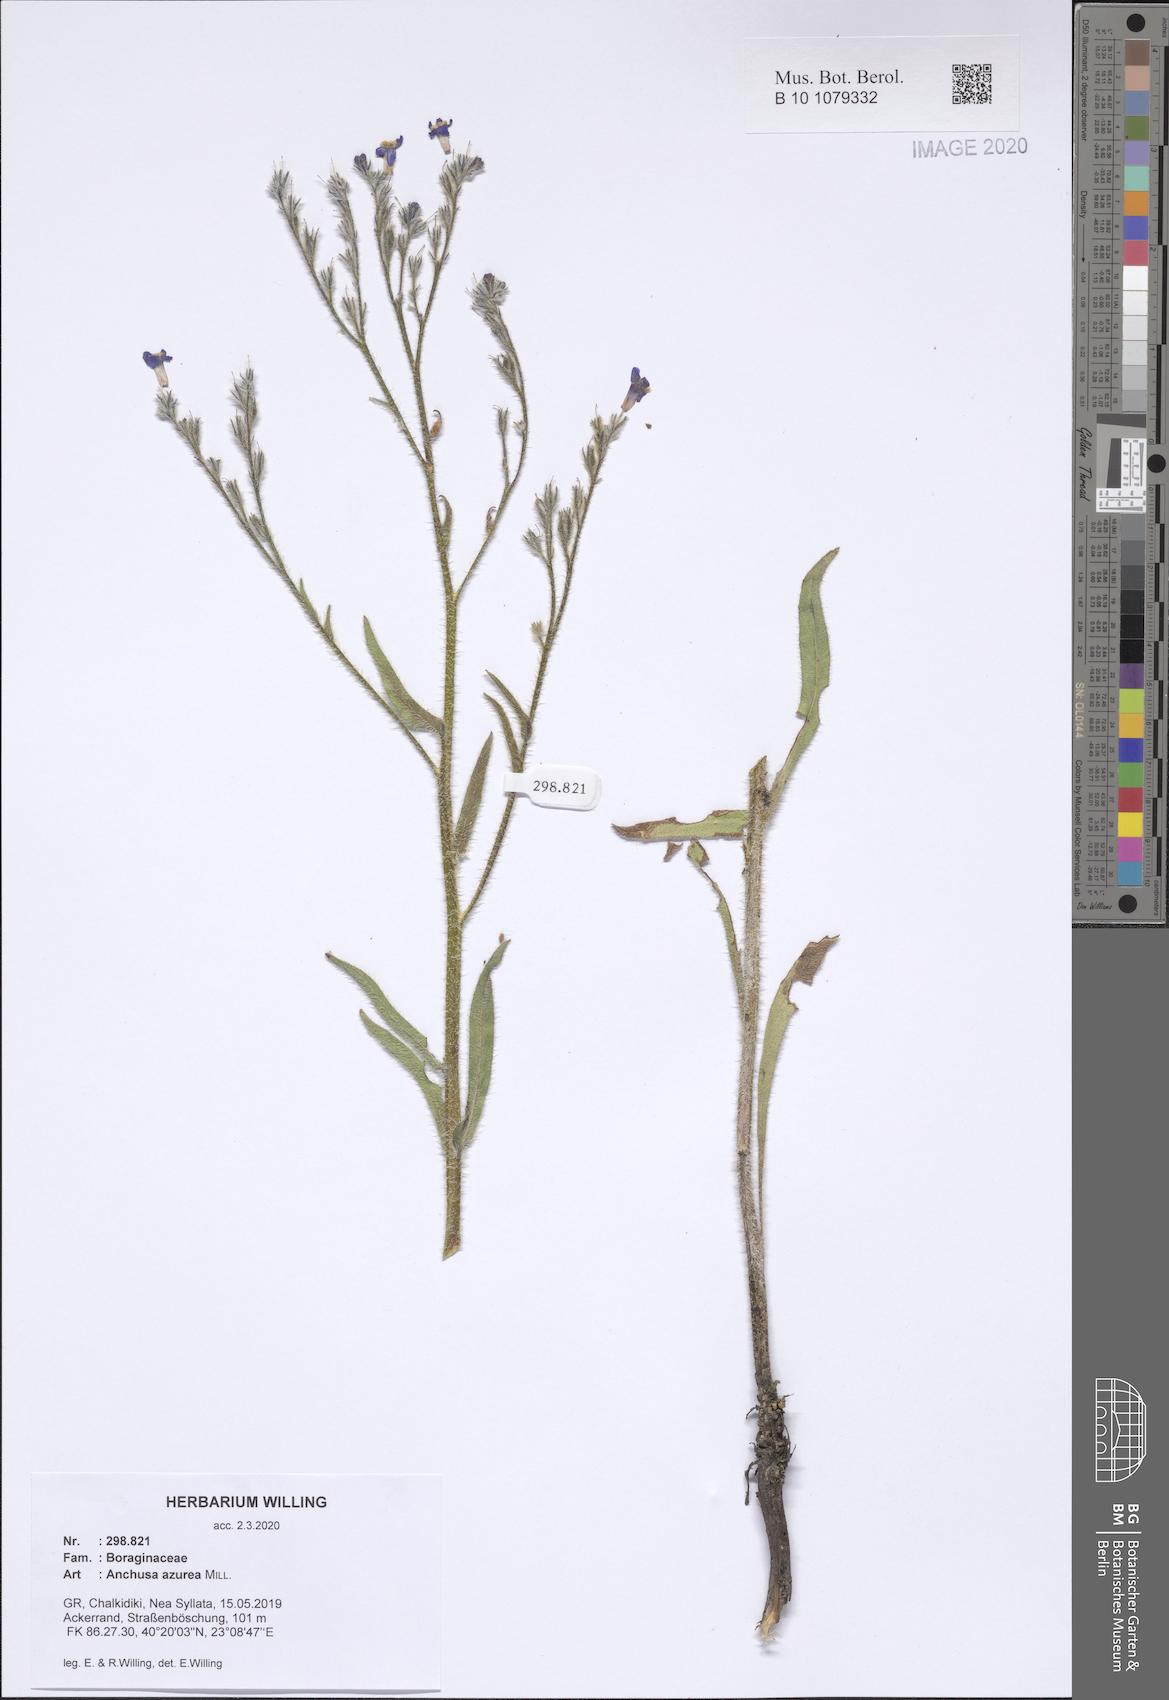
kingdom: Plantae
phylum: Tracheophyta
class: Magnoliopsida
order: Boraginales
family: Boraginaceae
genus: Anchusa
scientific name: Anchusa azurea
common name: Garden anchusa
